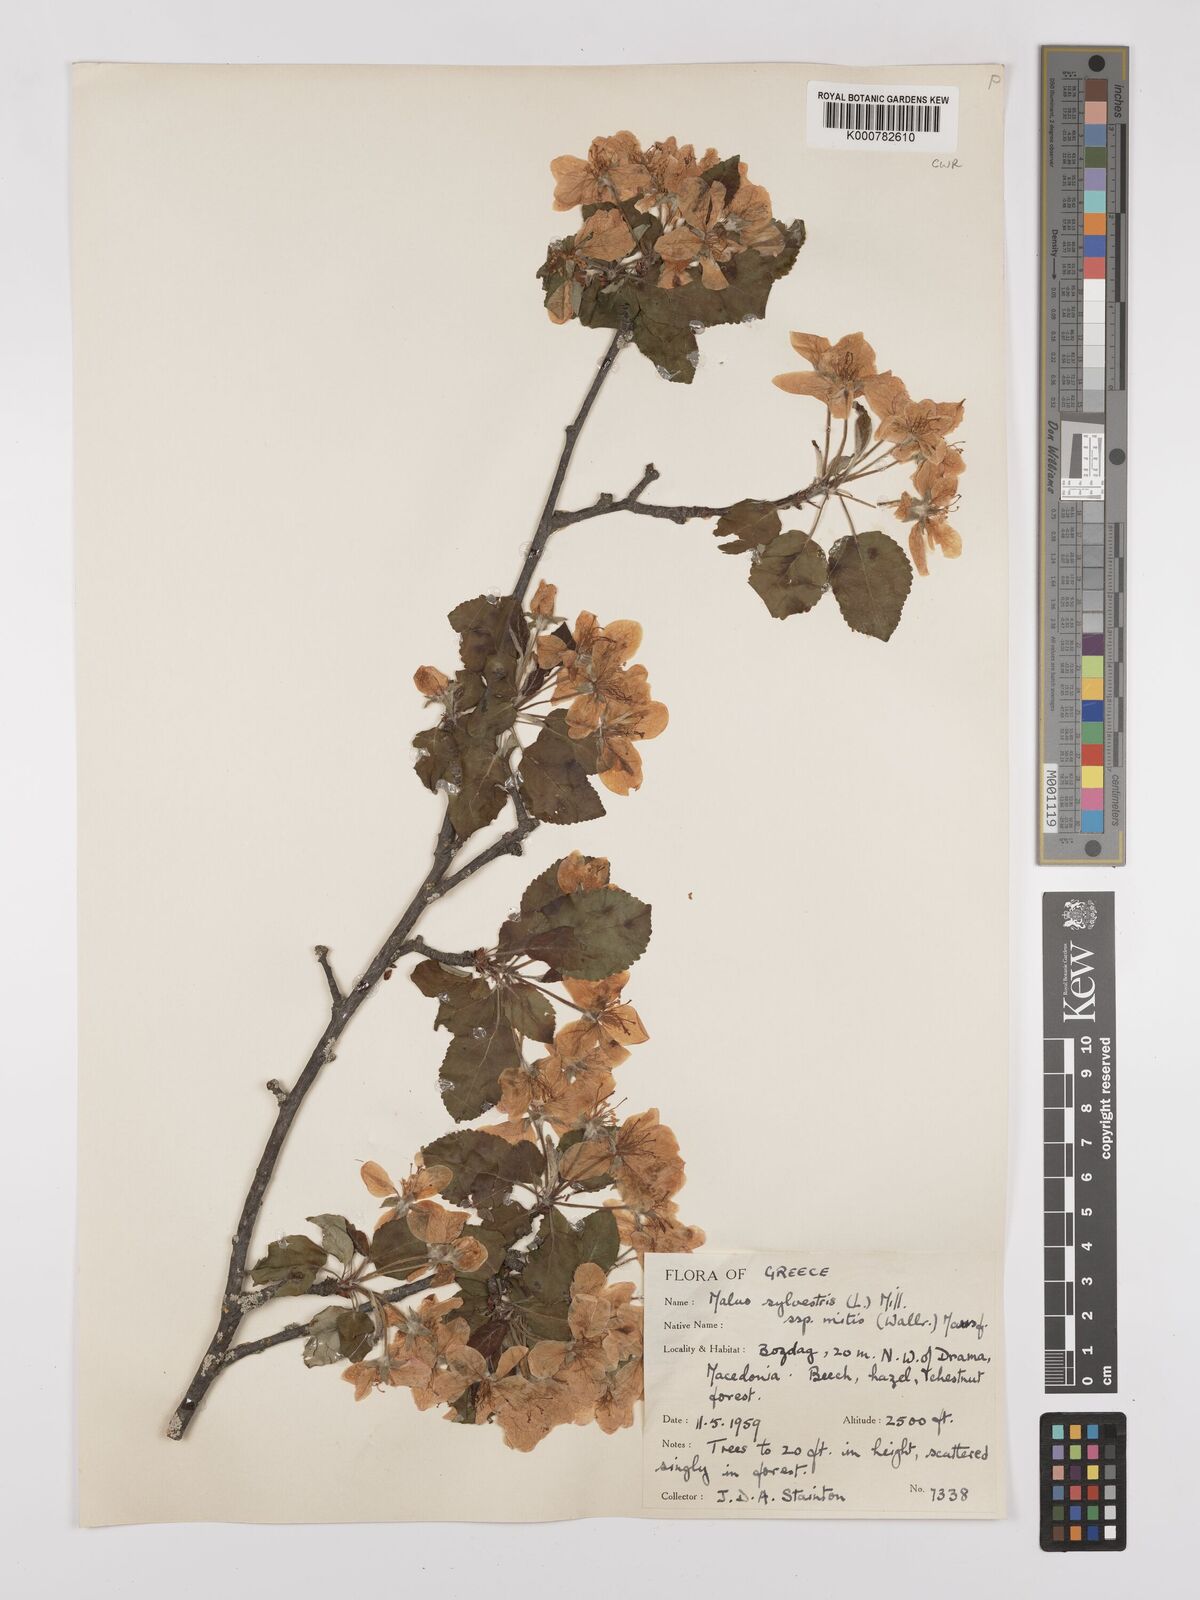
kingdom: Plantae
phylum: Tracheophyta
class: Magnoliopsida
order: Rosales
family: Rosaceae
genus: Malus
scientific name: Malus sylvestris
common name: Crab apple
